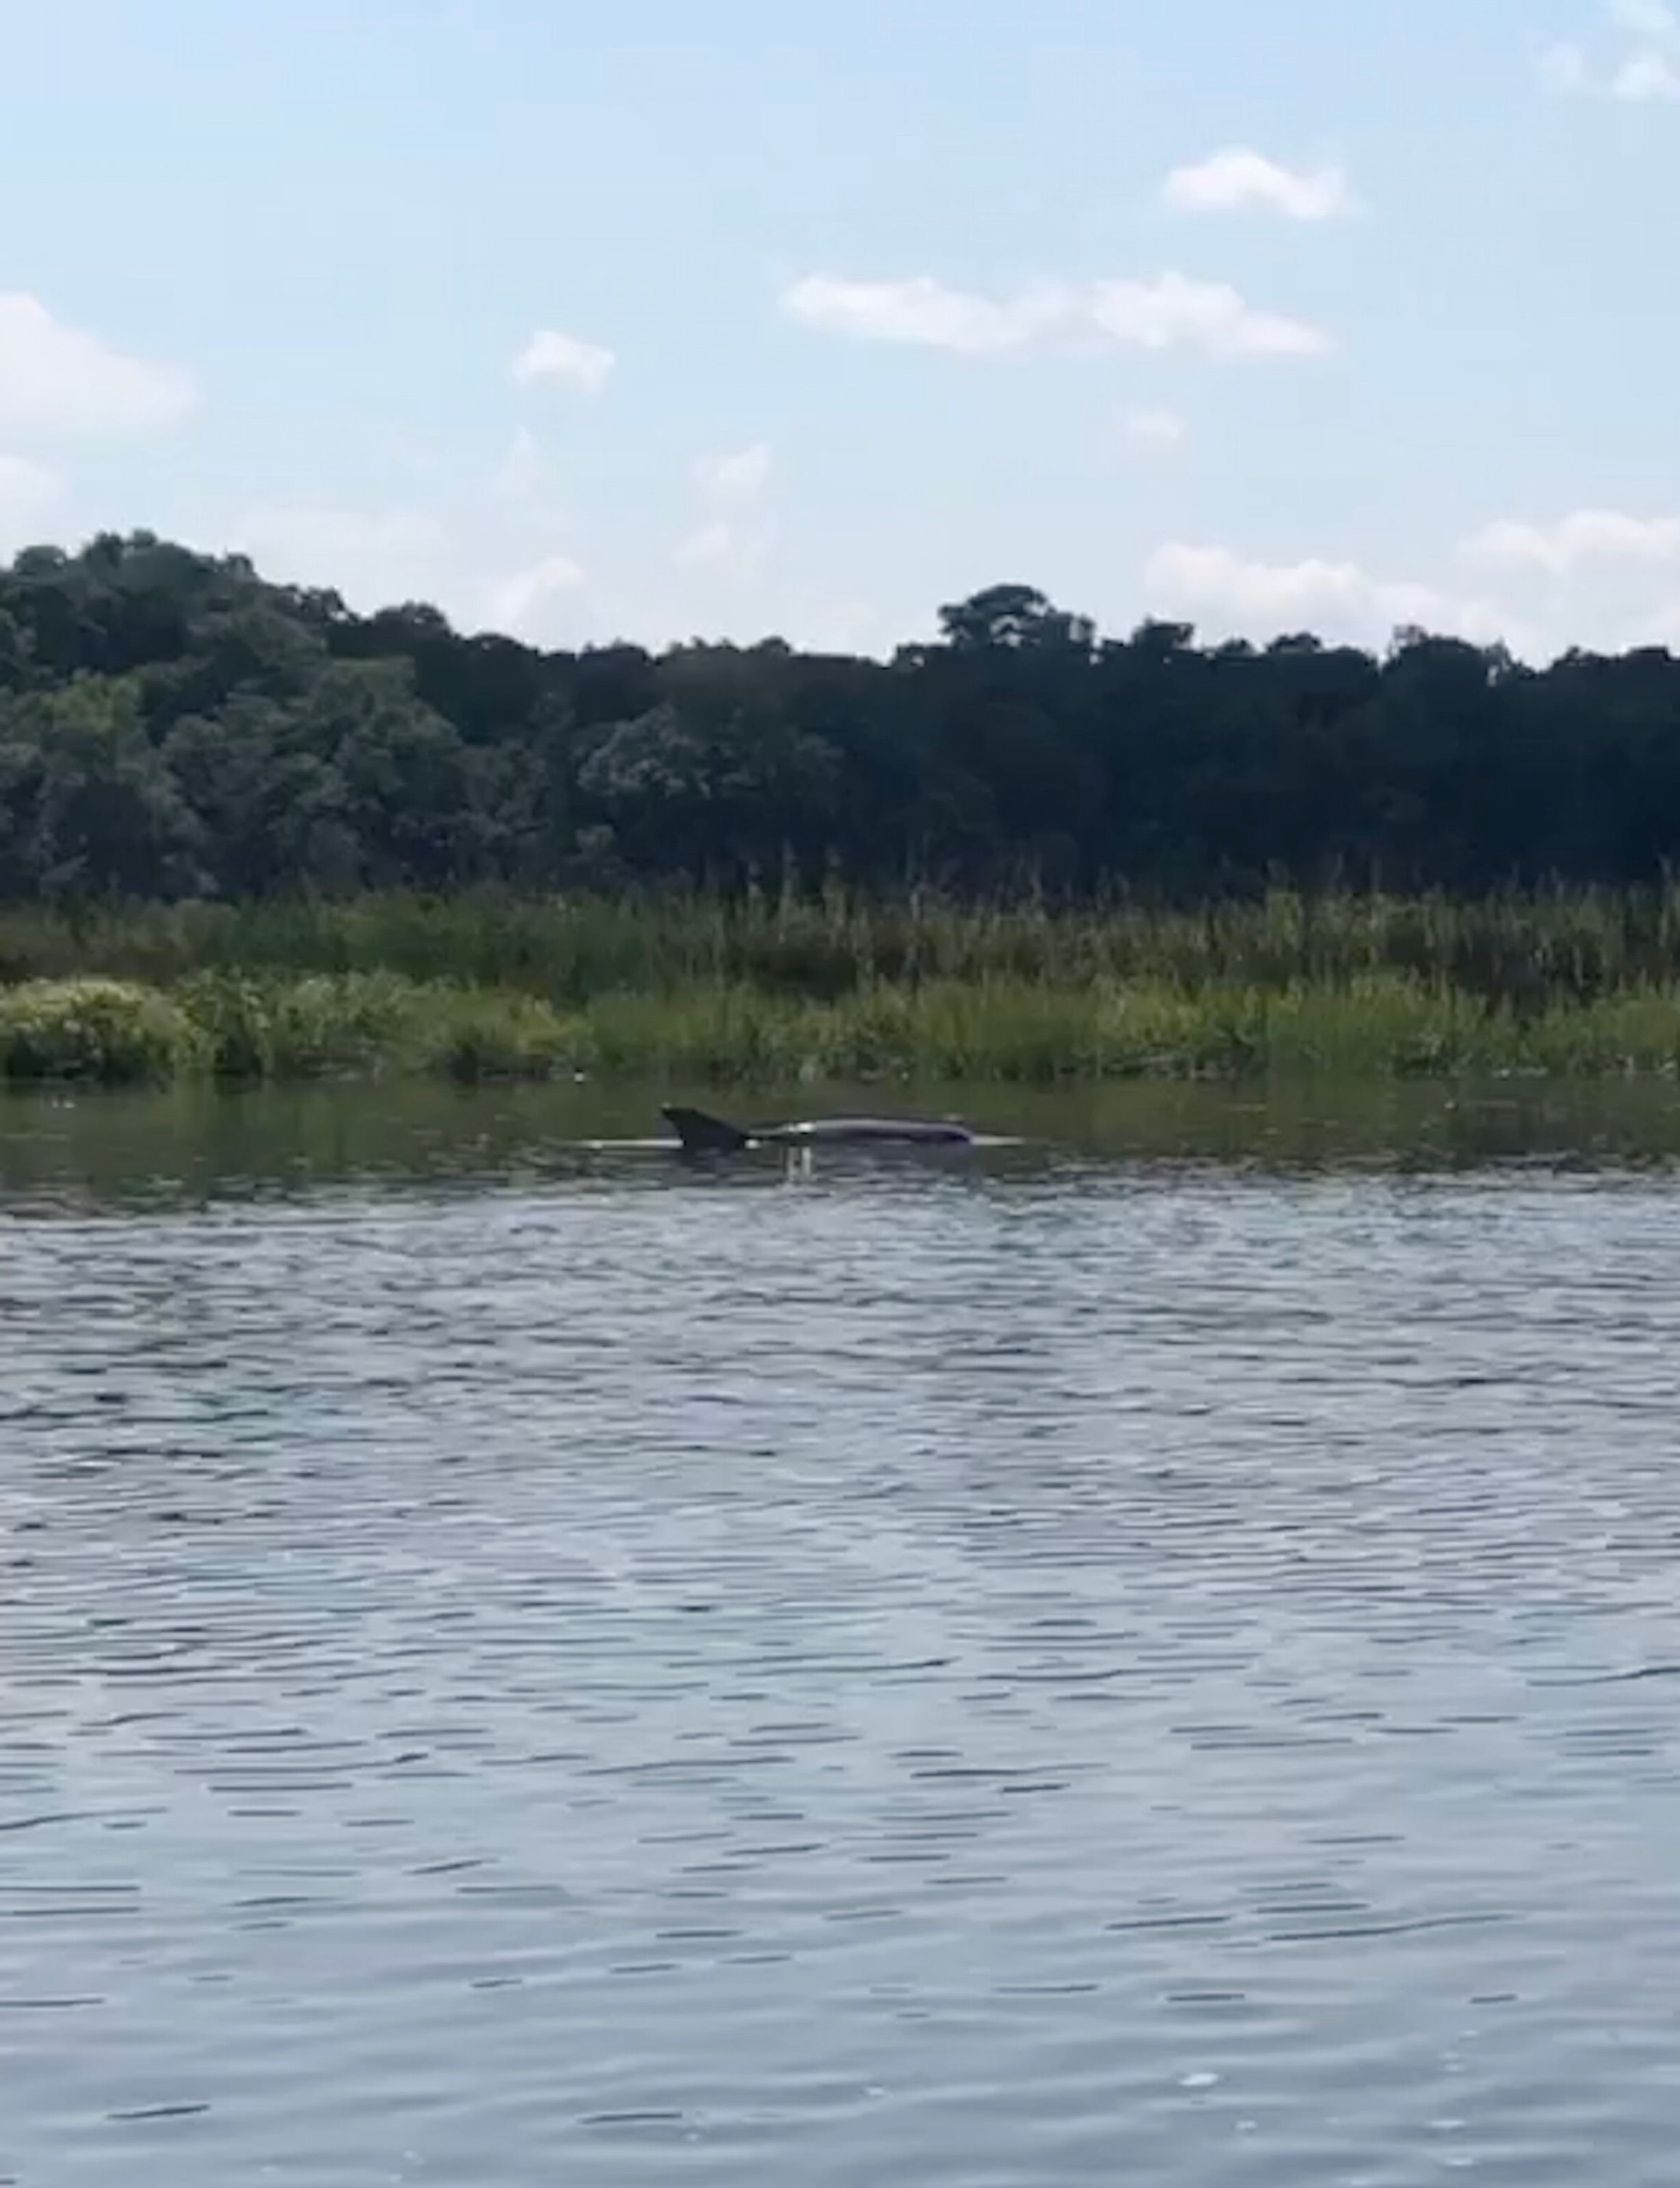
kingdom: Animalia
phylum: Chordata
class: Mammalia
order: Cetacea
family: Delphinidae
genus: Tursiops
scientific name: Tursiops truncatus
